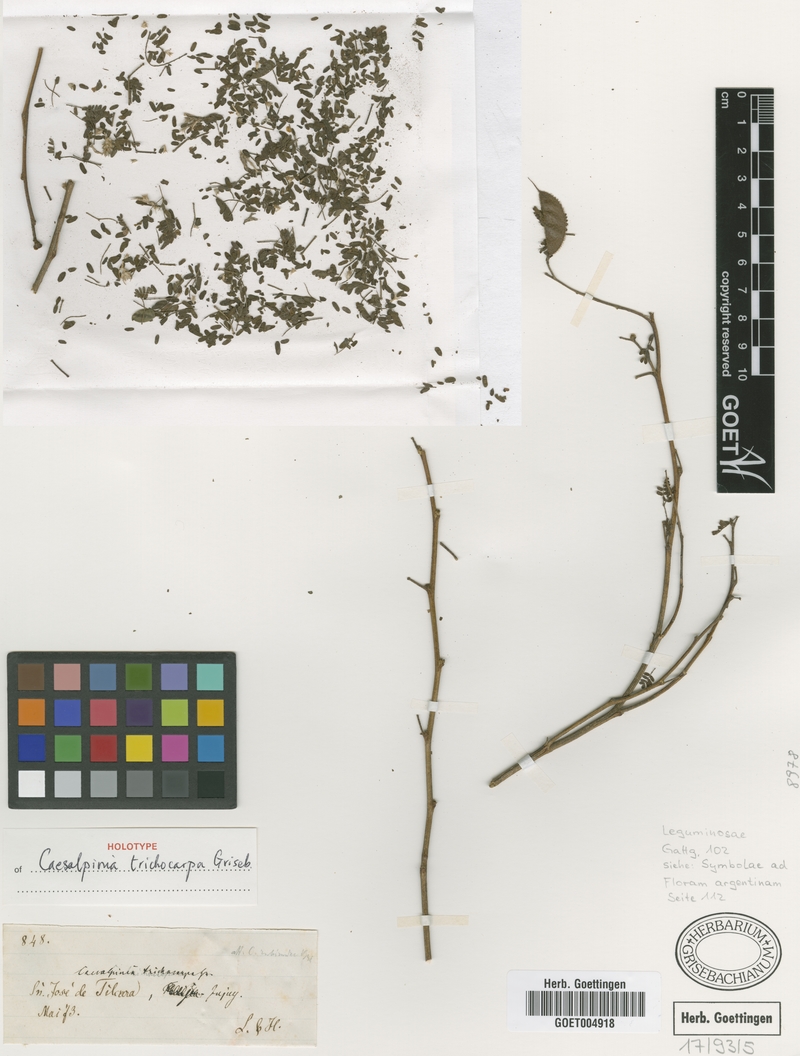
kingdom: Plantae
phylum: Tracheophyta
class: Magnoliopsida
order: Fabales
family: Fabaceae
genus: Arquita
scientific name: Arquita trichocarpa
